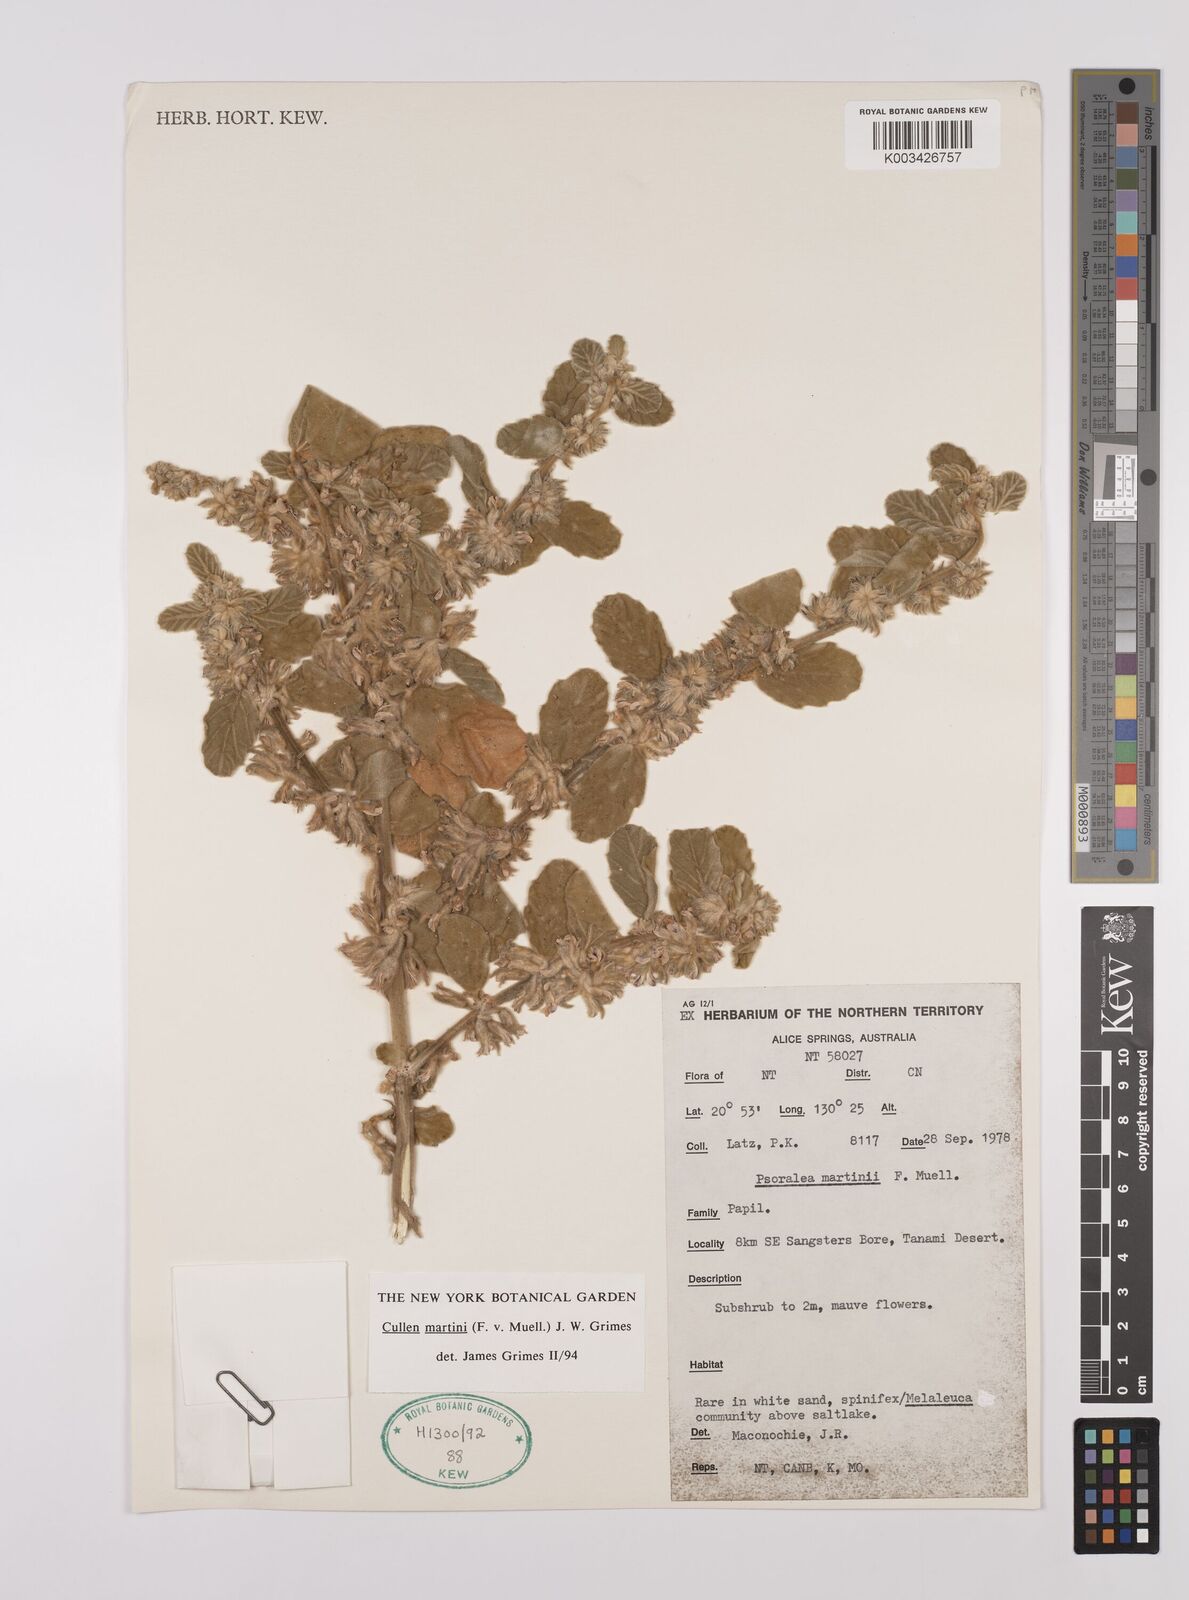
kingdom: Plantae
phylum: Tracheophyta
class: Magnoliopsida
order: Fabales
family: Fabaceae
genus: Cullen
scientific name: Cullen martini
